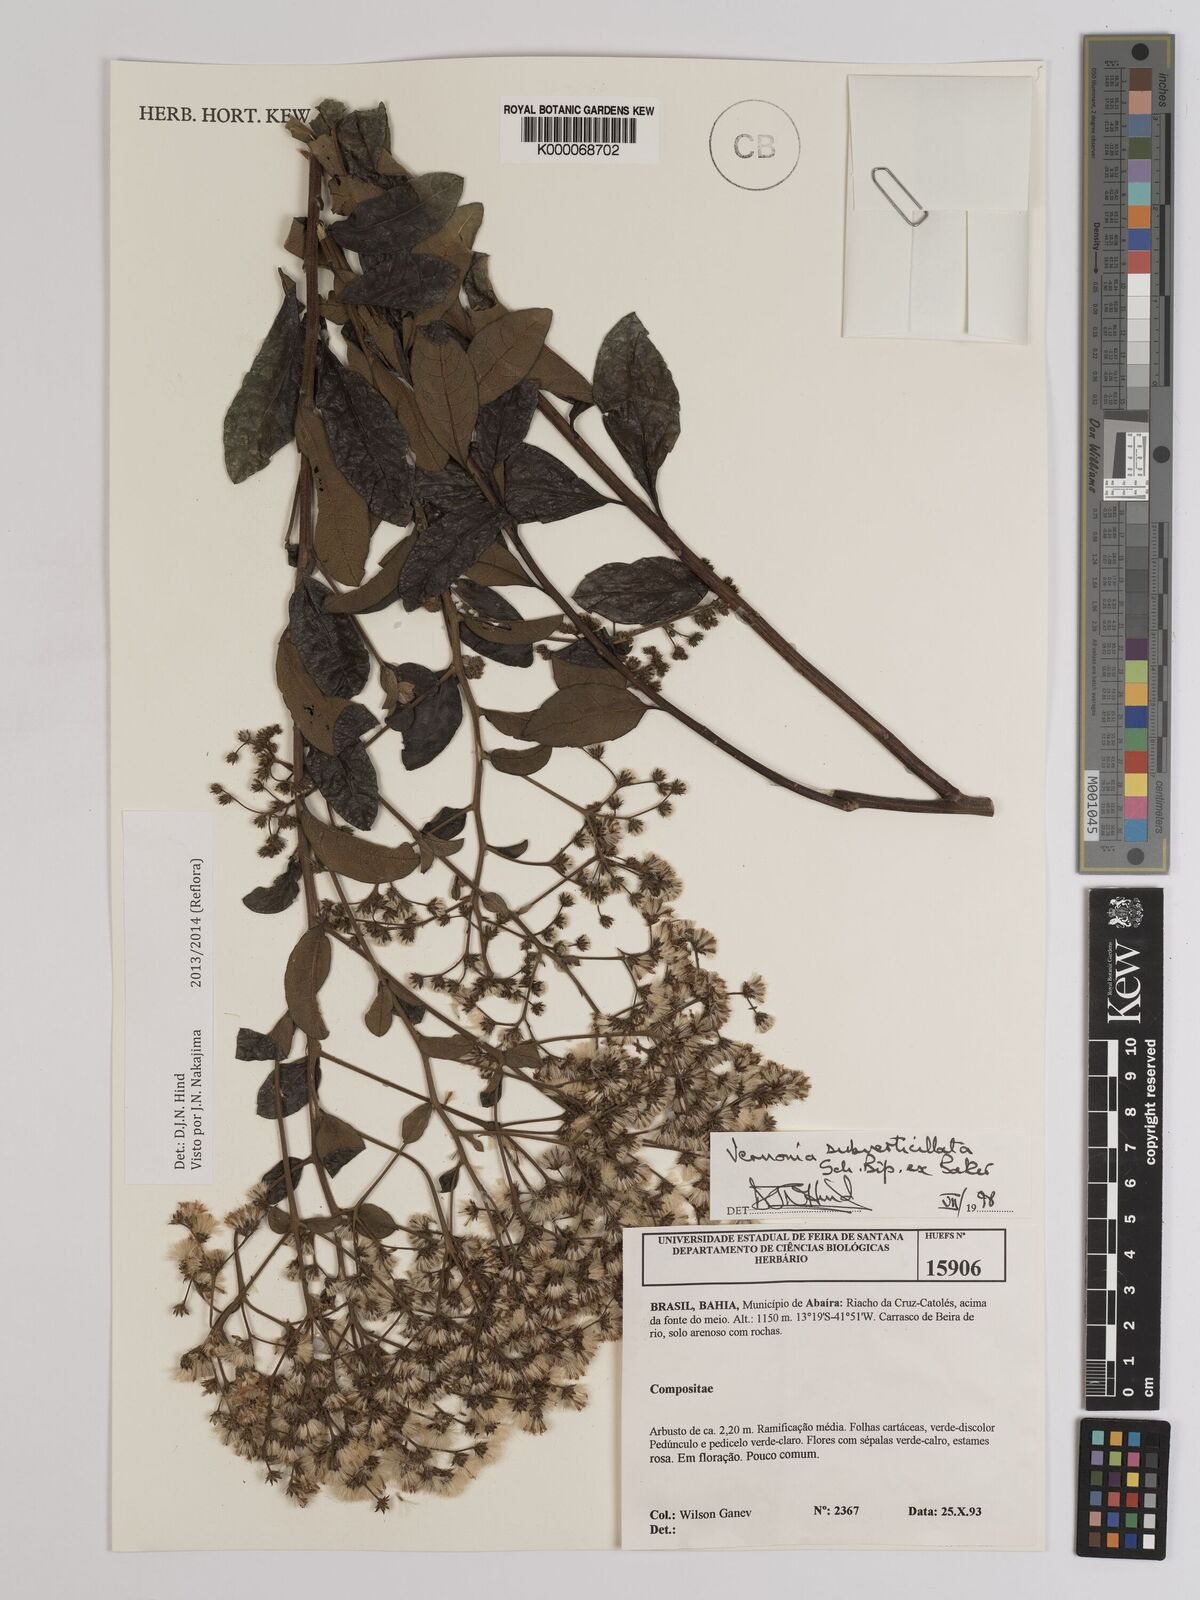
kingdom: Plantae
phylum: Tracheophyta
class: Magnoliopsida
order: Asterales
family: Asteraceae
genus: Vernonia
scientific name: Vernonia
